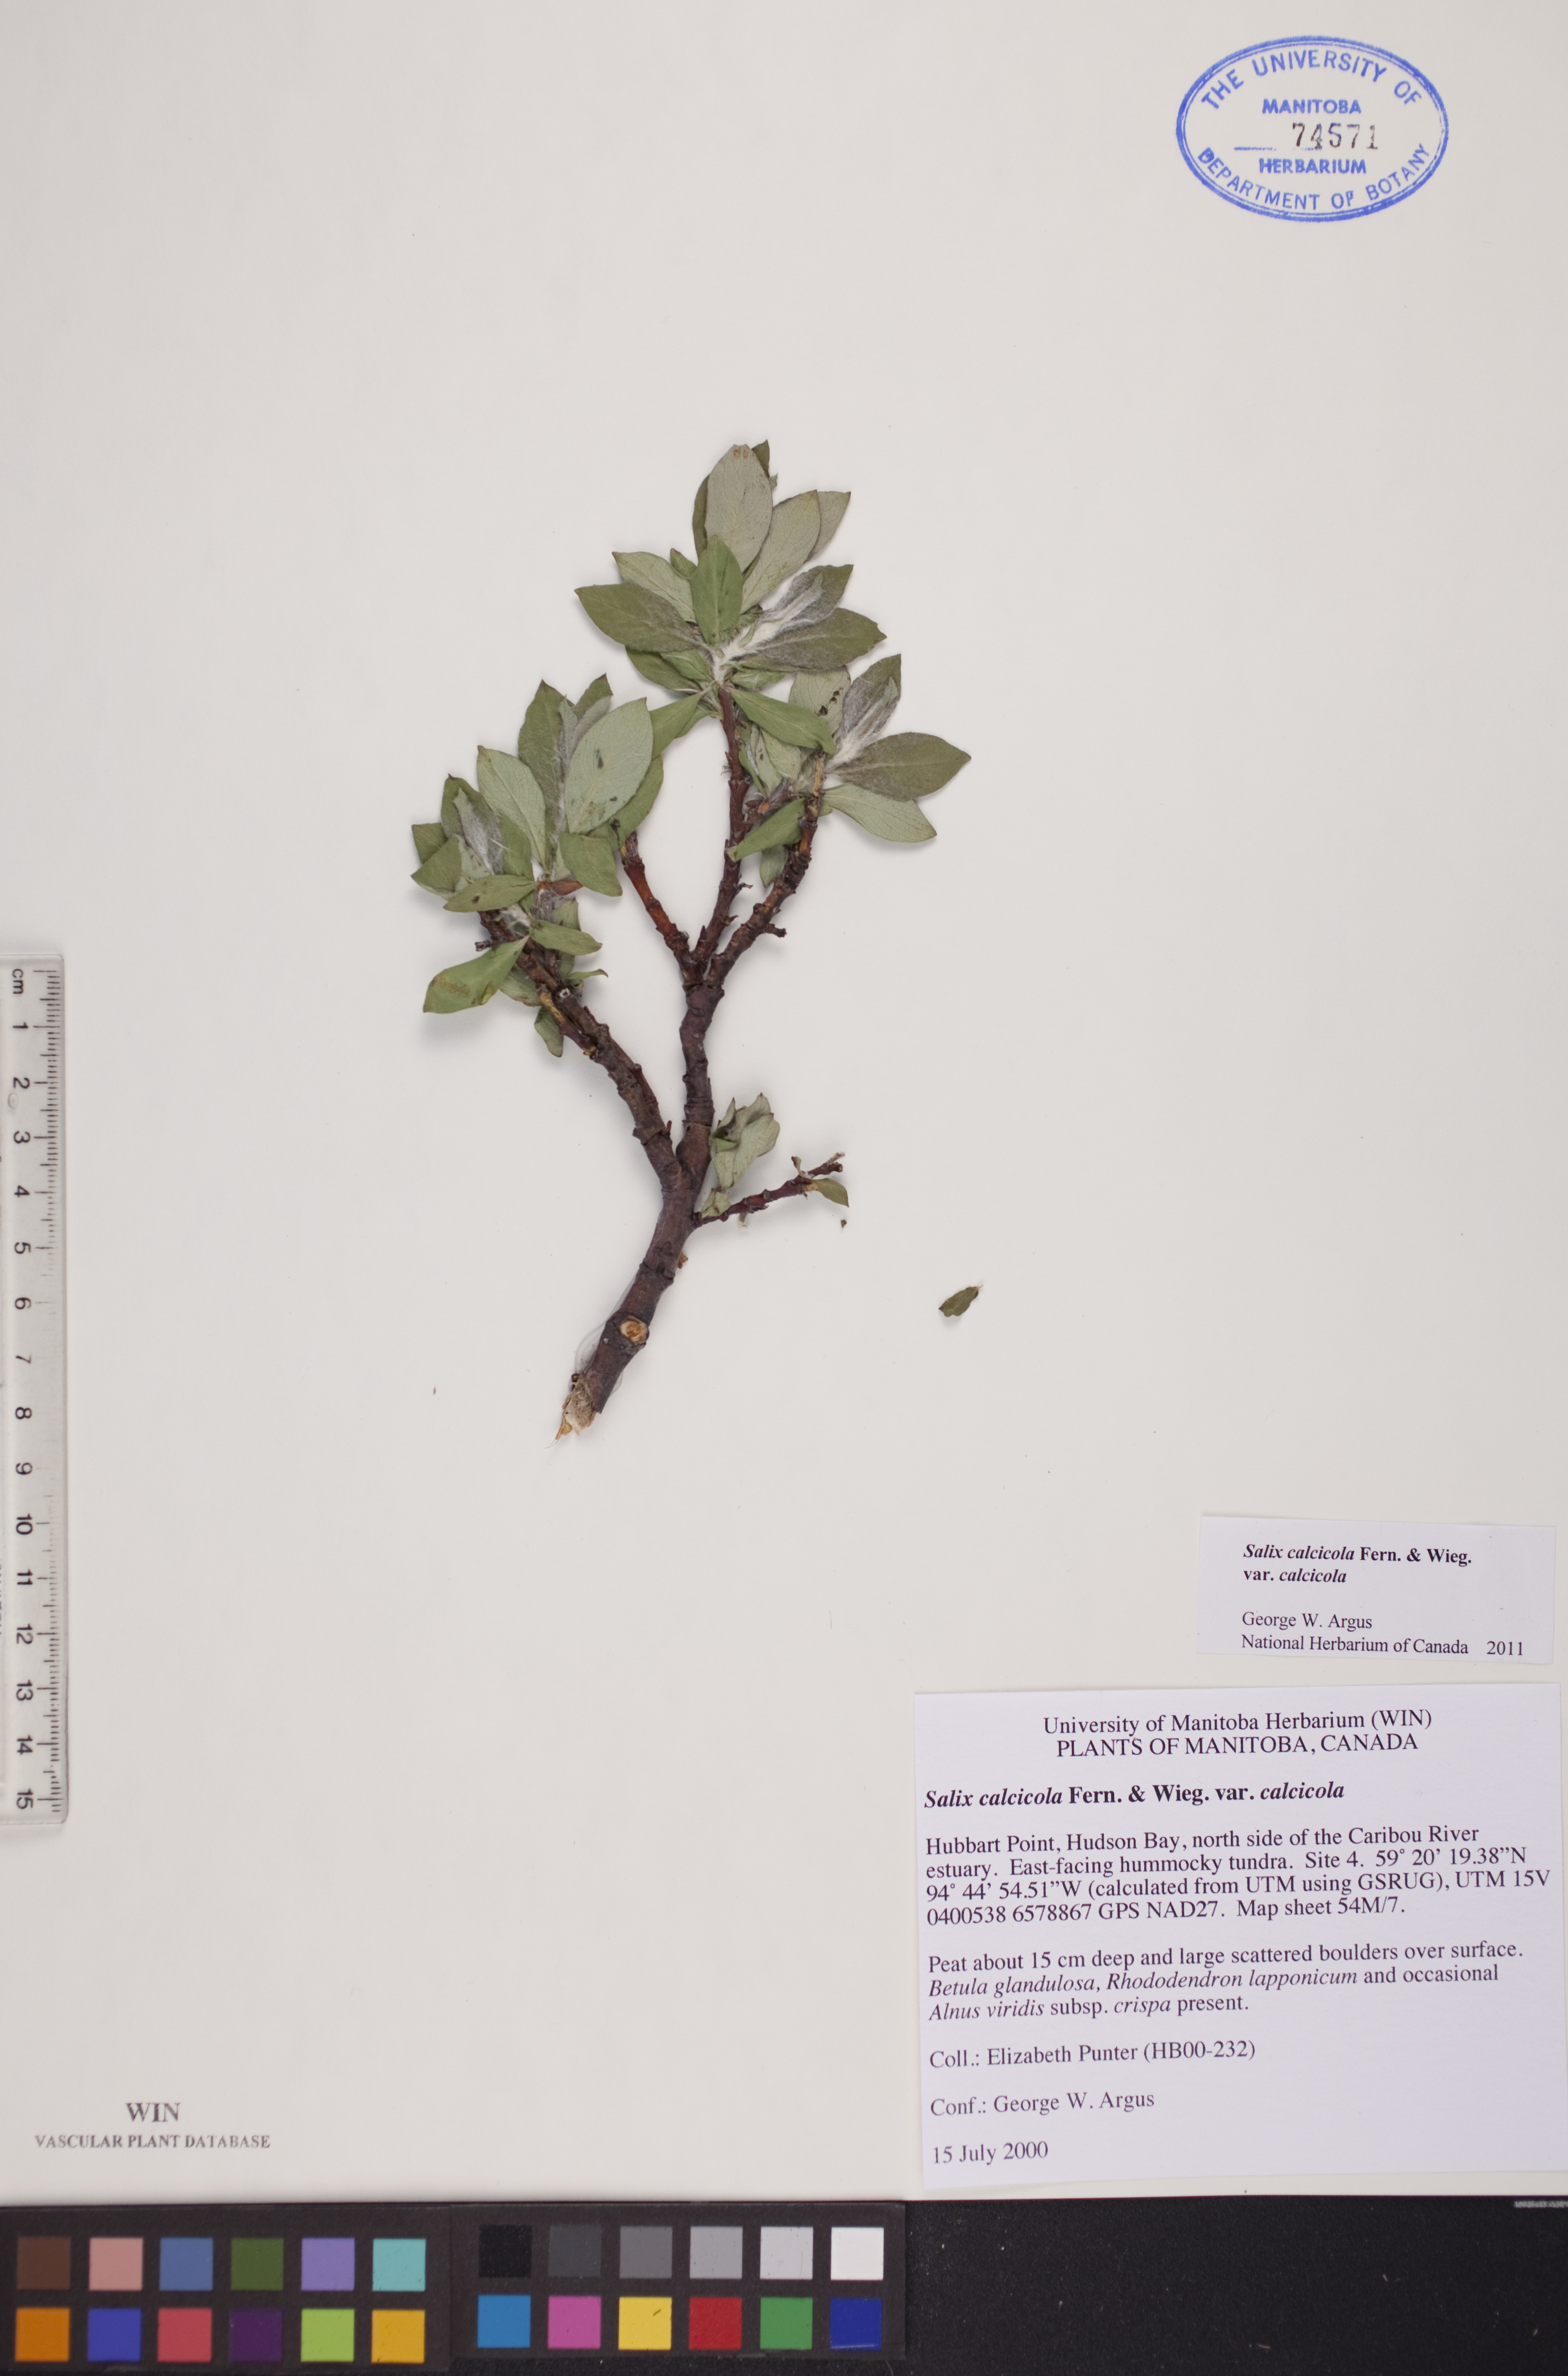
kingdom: Plantae
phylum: Tracheophyta
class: Magnoliopsida
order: Malpighiales
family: Salicaceae
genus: Salix
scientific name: Salix calcicola
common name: Calcareous willow
